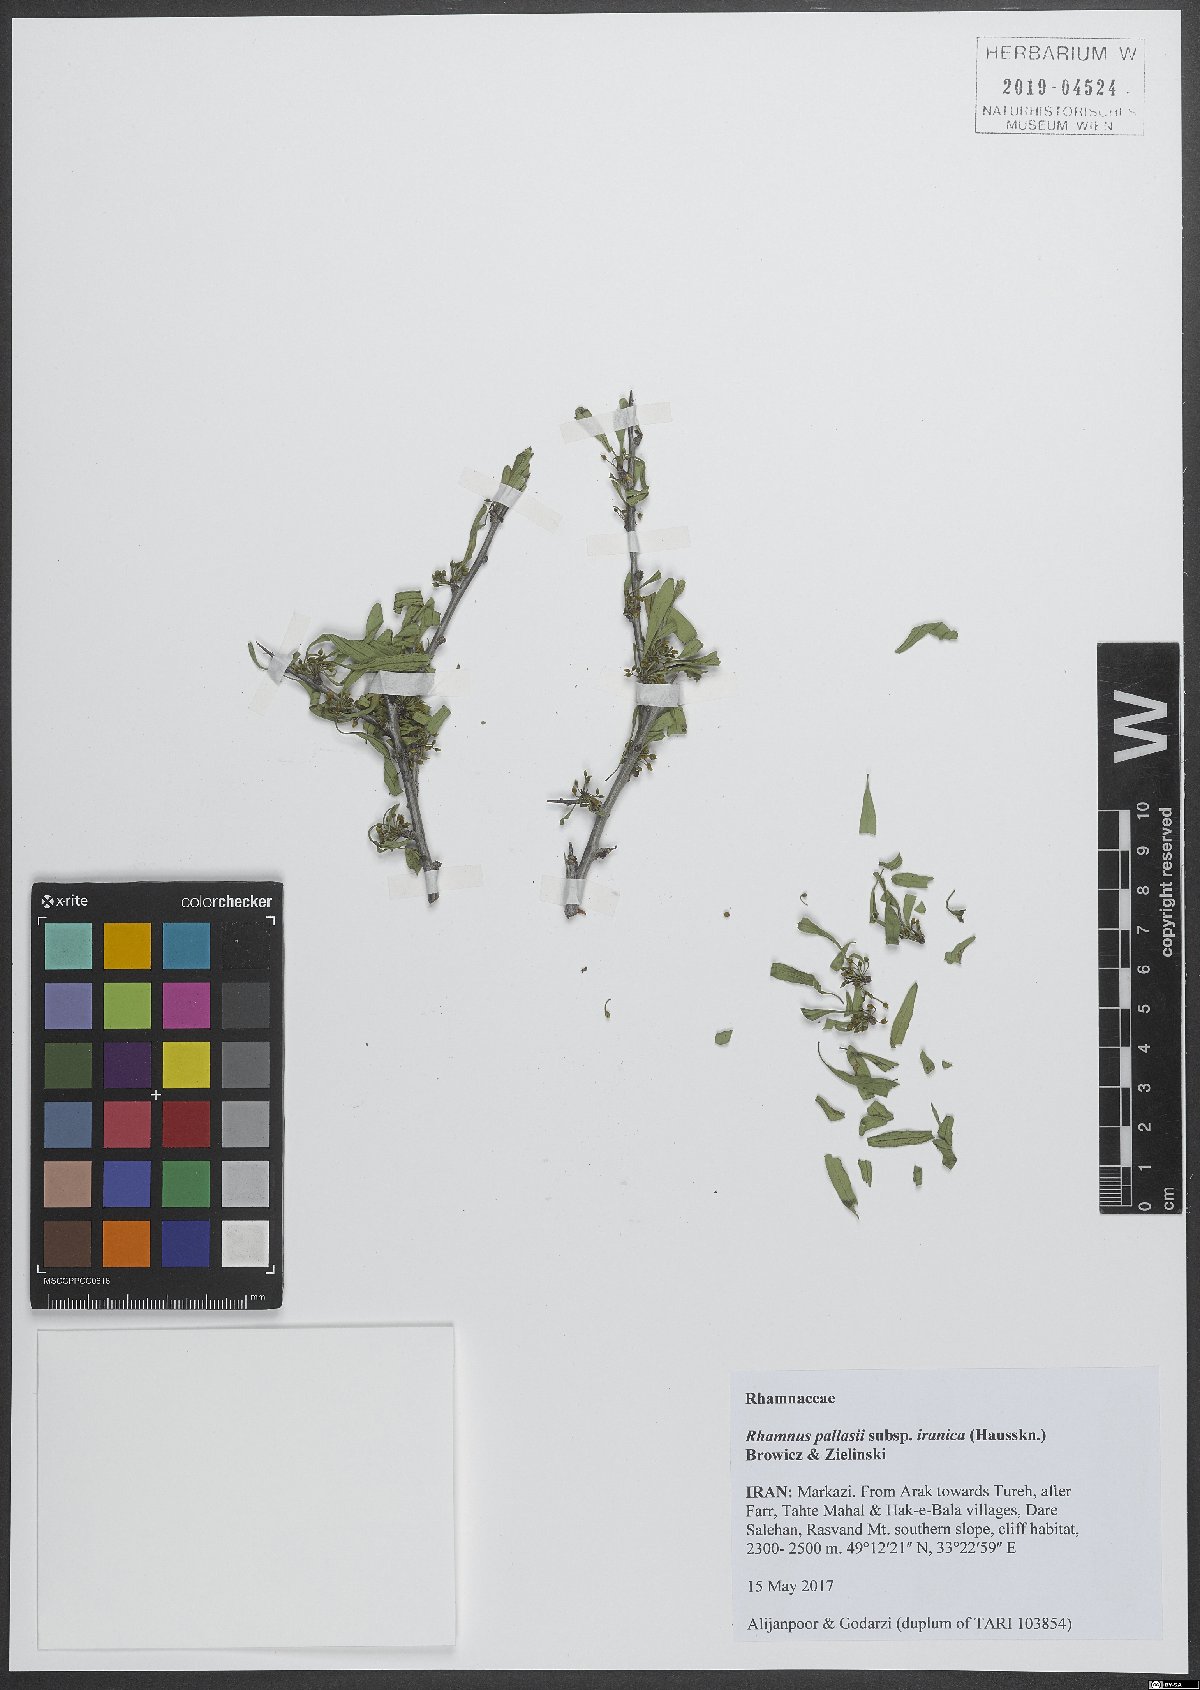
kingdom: Plantae
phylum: Tracheophyta
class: Magnoliopsida
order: Rosales
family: Rhamnaceae
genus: Rhamnus
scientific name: Rhamnus erythroxyloides
